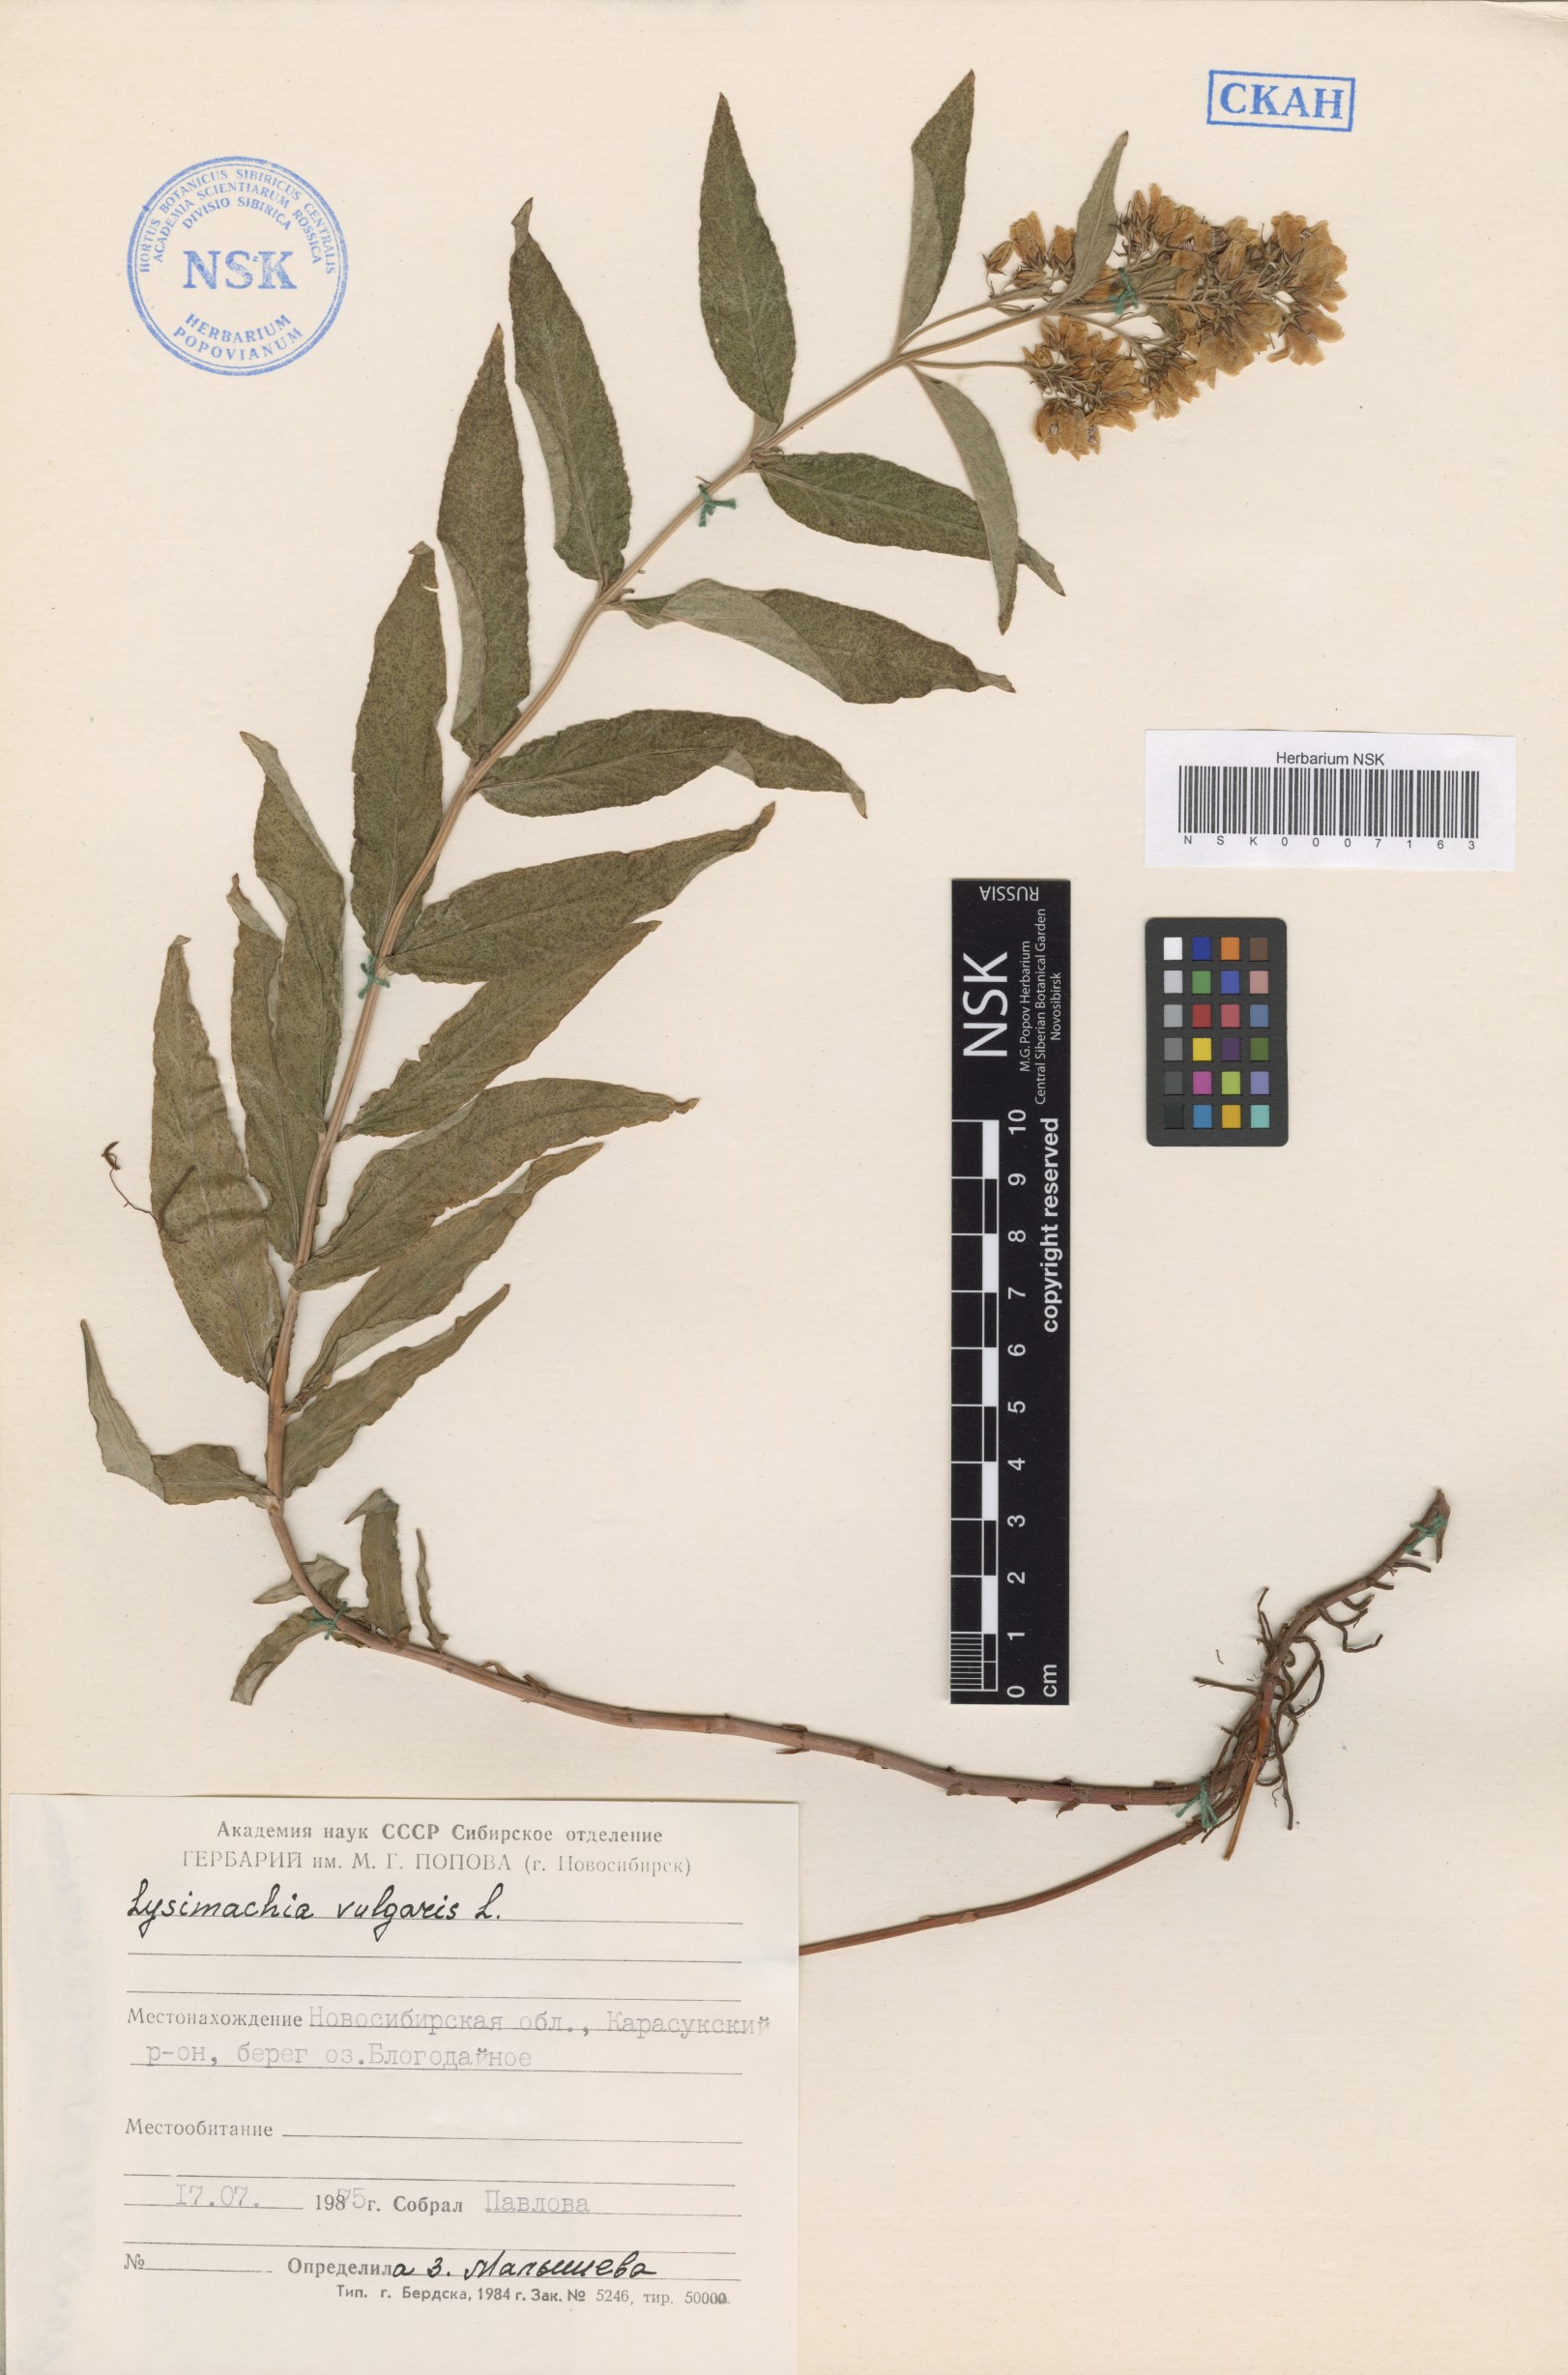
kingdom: Plantae
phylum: Tracheophyta
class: Magnoliopsida
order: Ericales
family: Primulaceae
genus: Lysimachia
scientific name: Lysimachia vulgaris
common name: Yellow loosestrife
